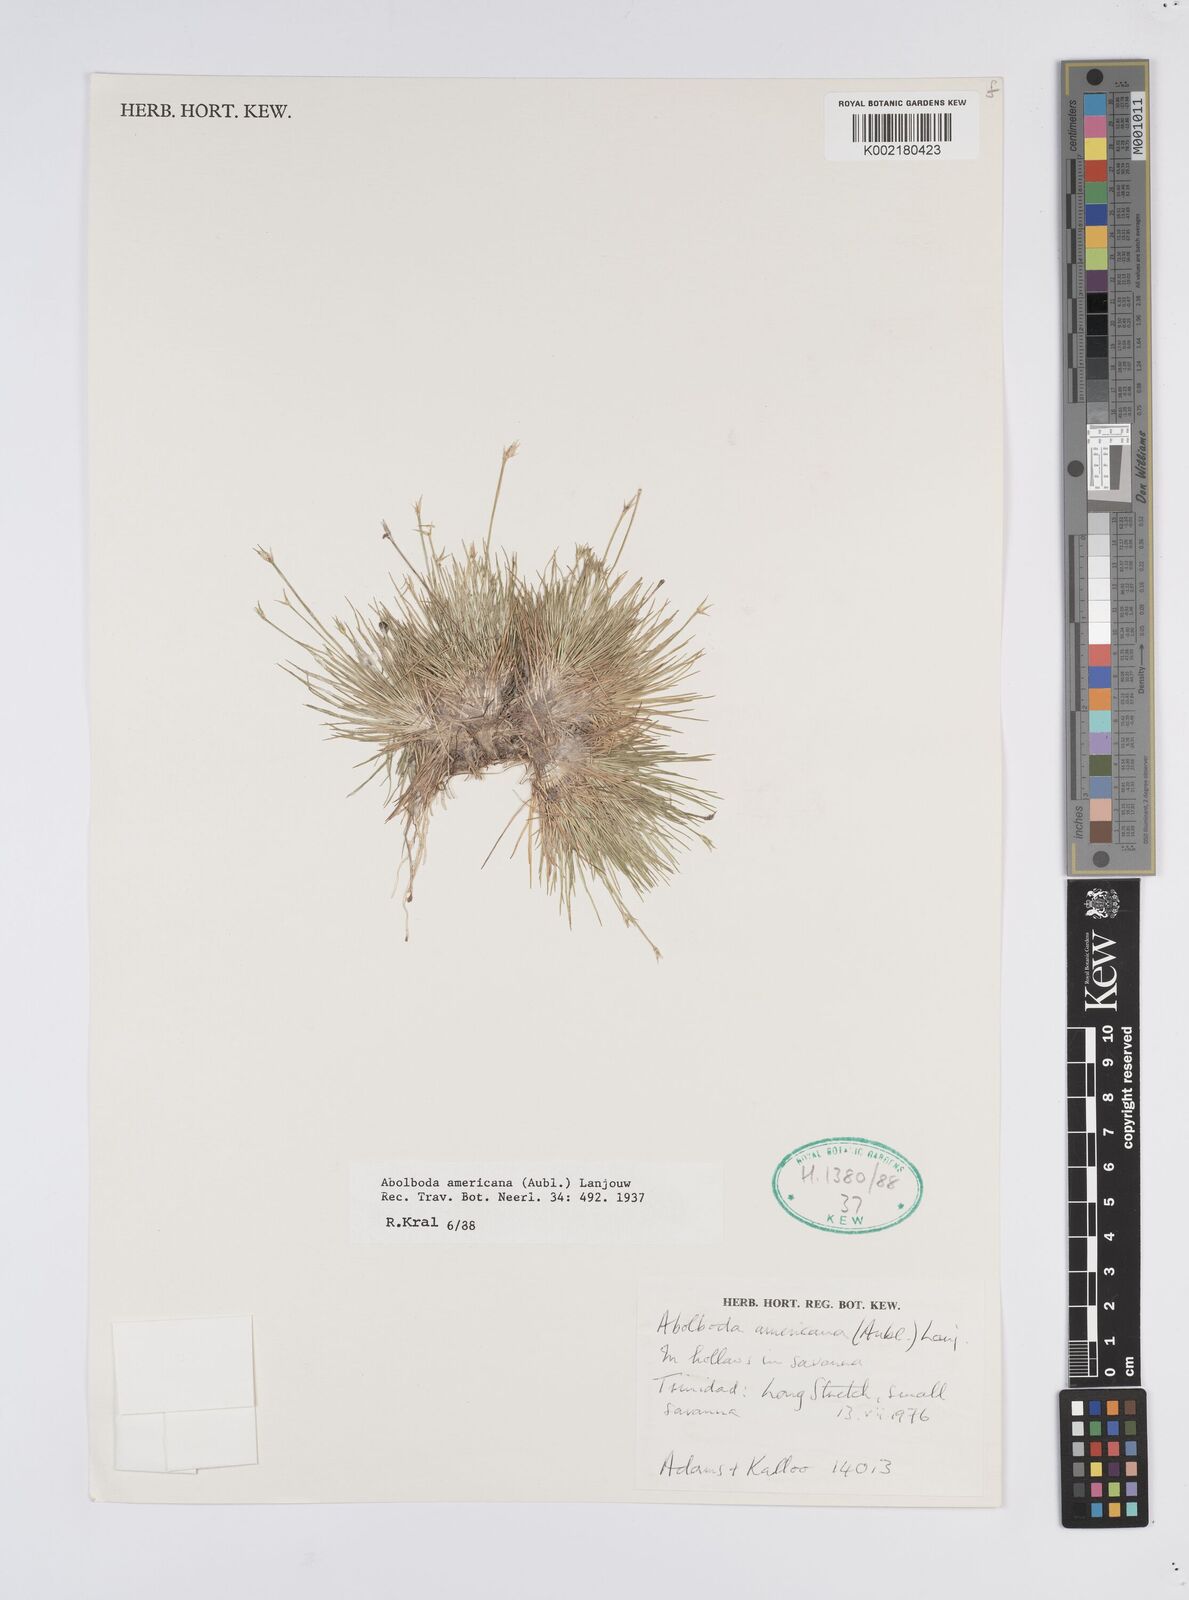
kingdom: Plantae
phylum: Tracheophyta
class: Liliopsida
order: Poales
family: Xyridaceae
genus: Abolboda
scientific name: Abolboda americana
